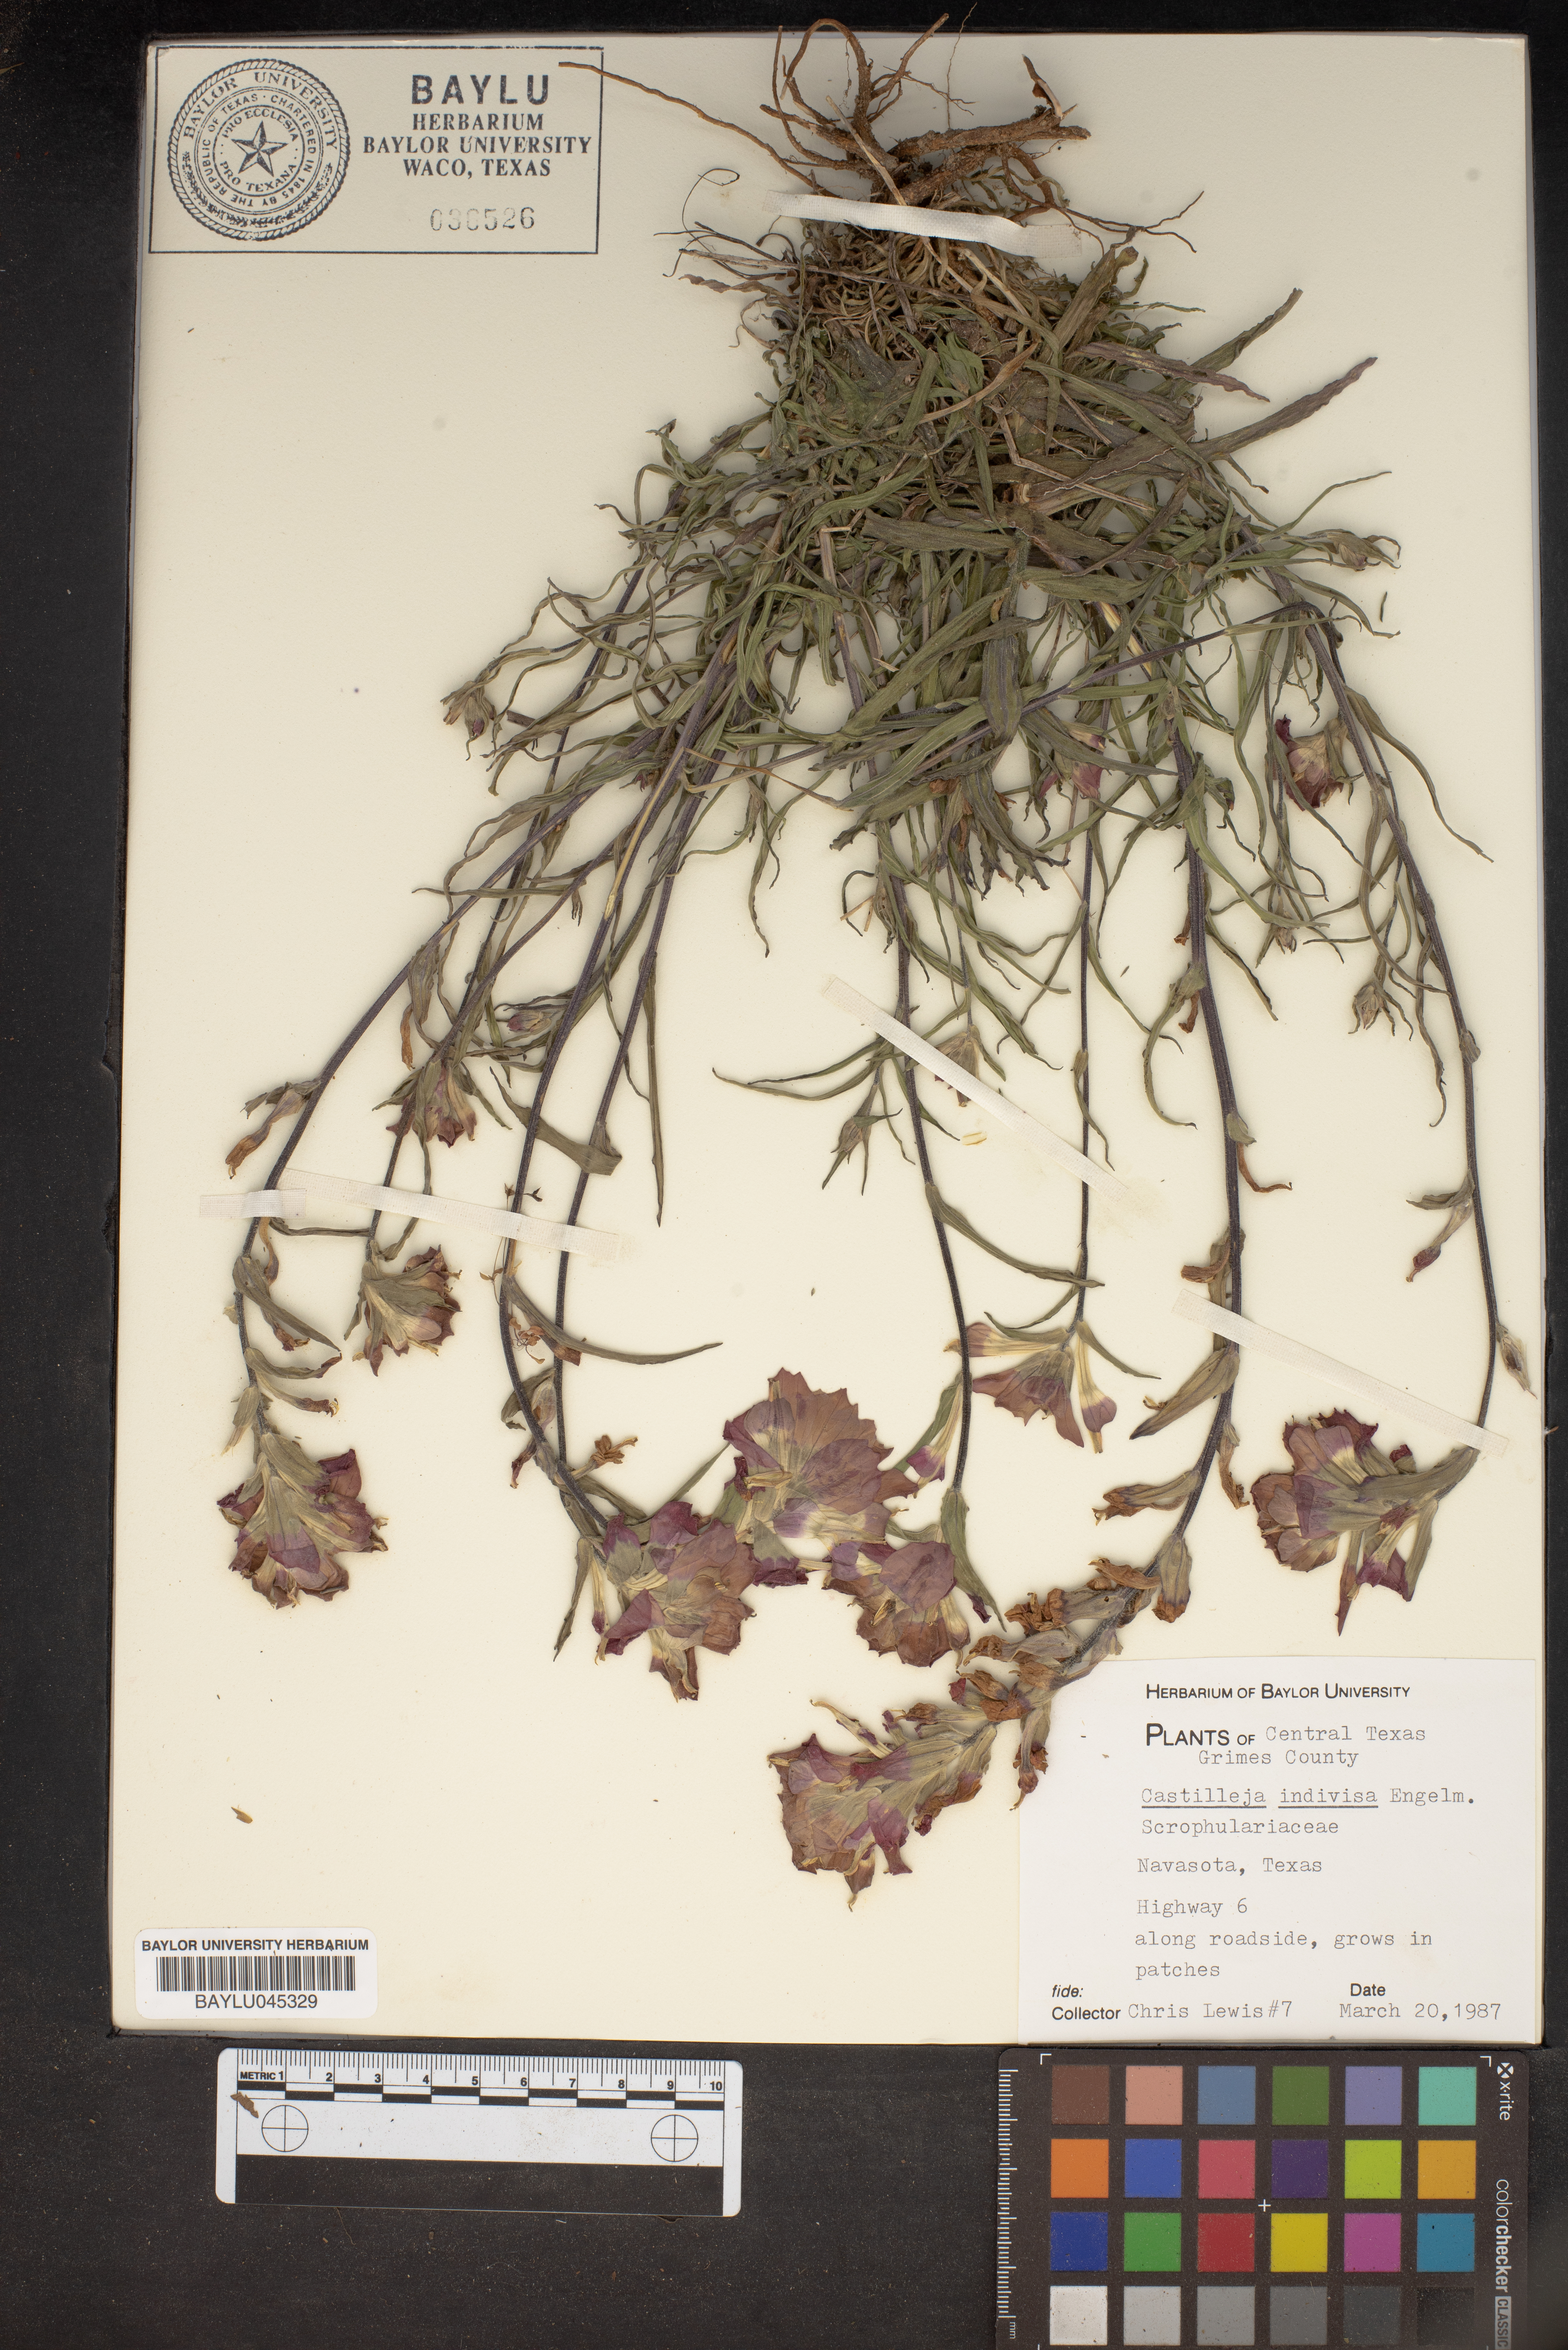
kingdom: Plantae
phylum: Tracheophyta
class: Magnoliopsida
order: Lamiales
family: Orobanchaceae
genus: Castilleja
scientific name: Castilleja indivisa
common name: Texas paintbrush
